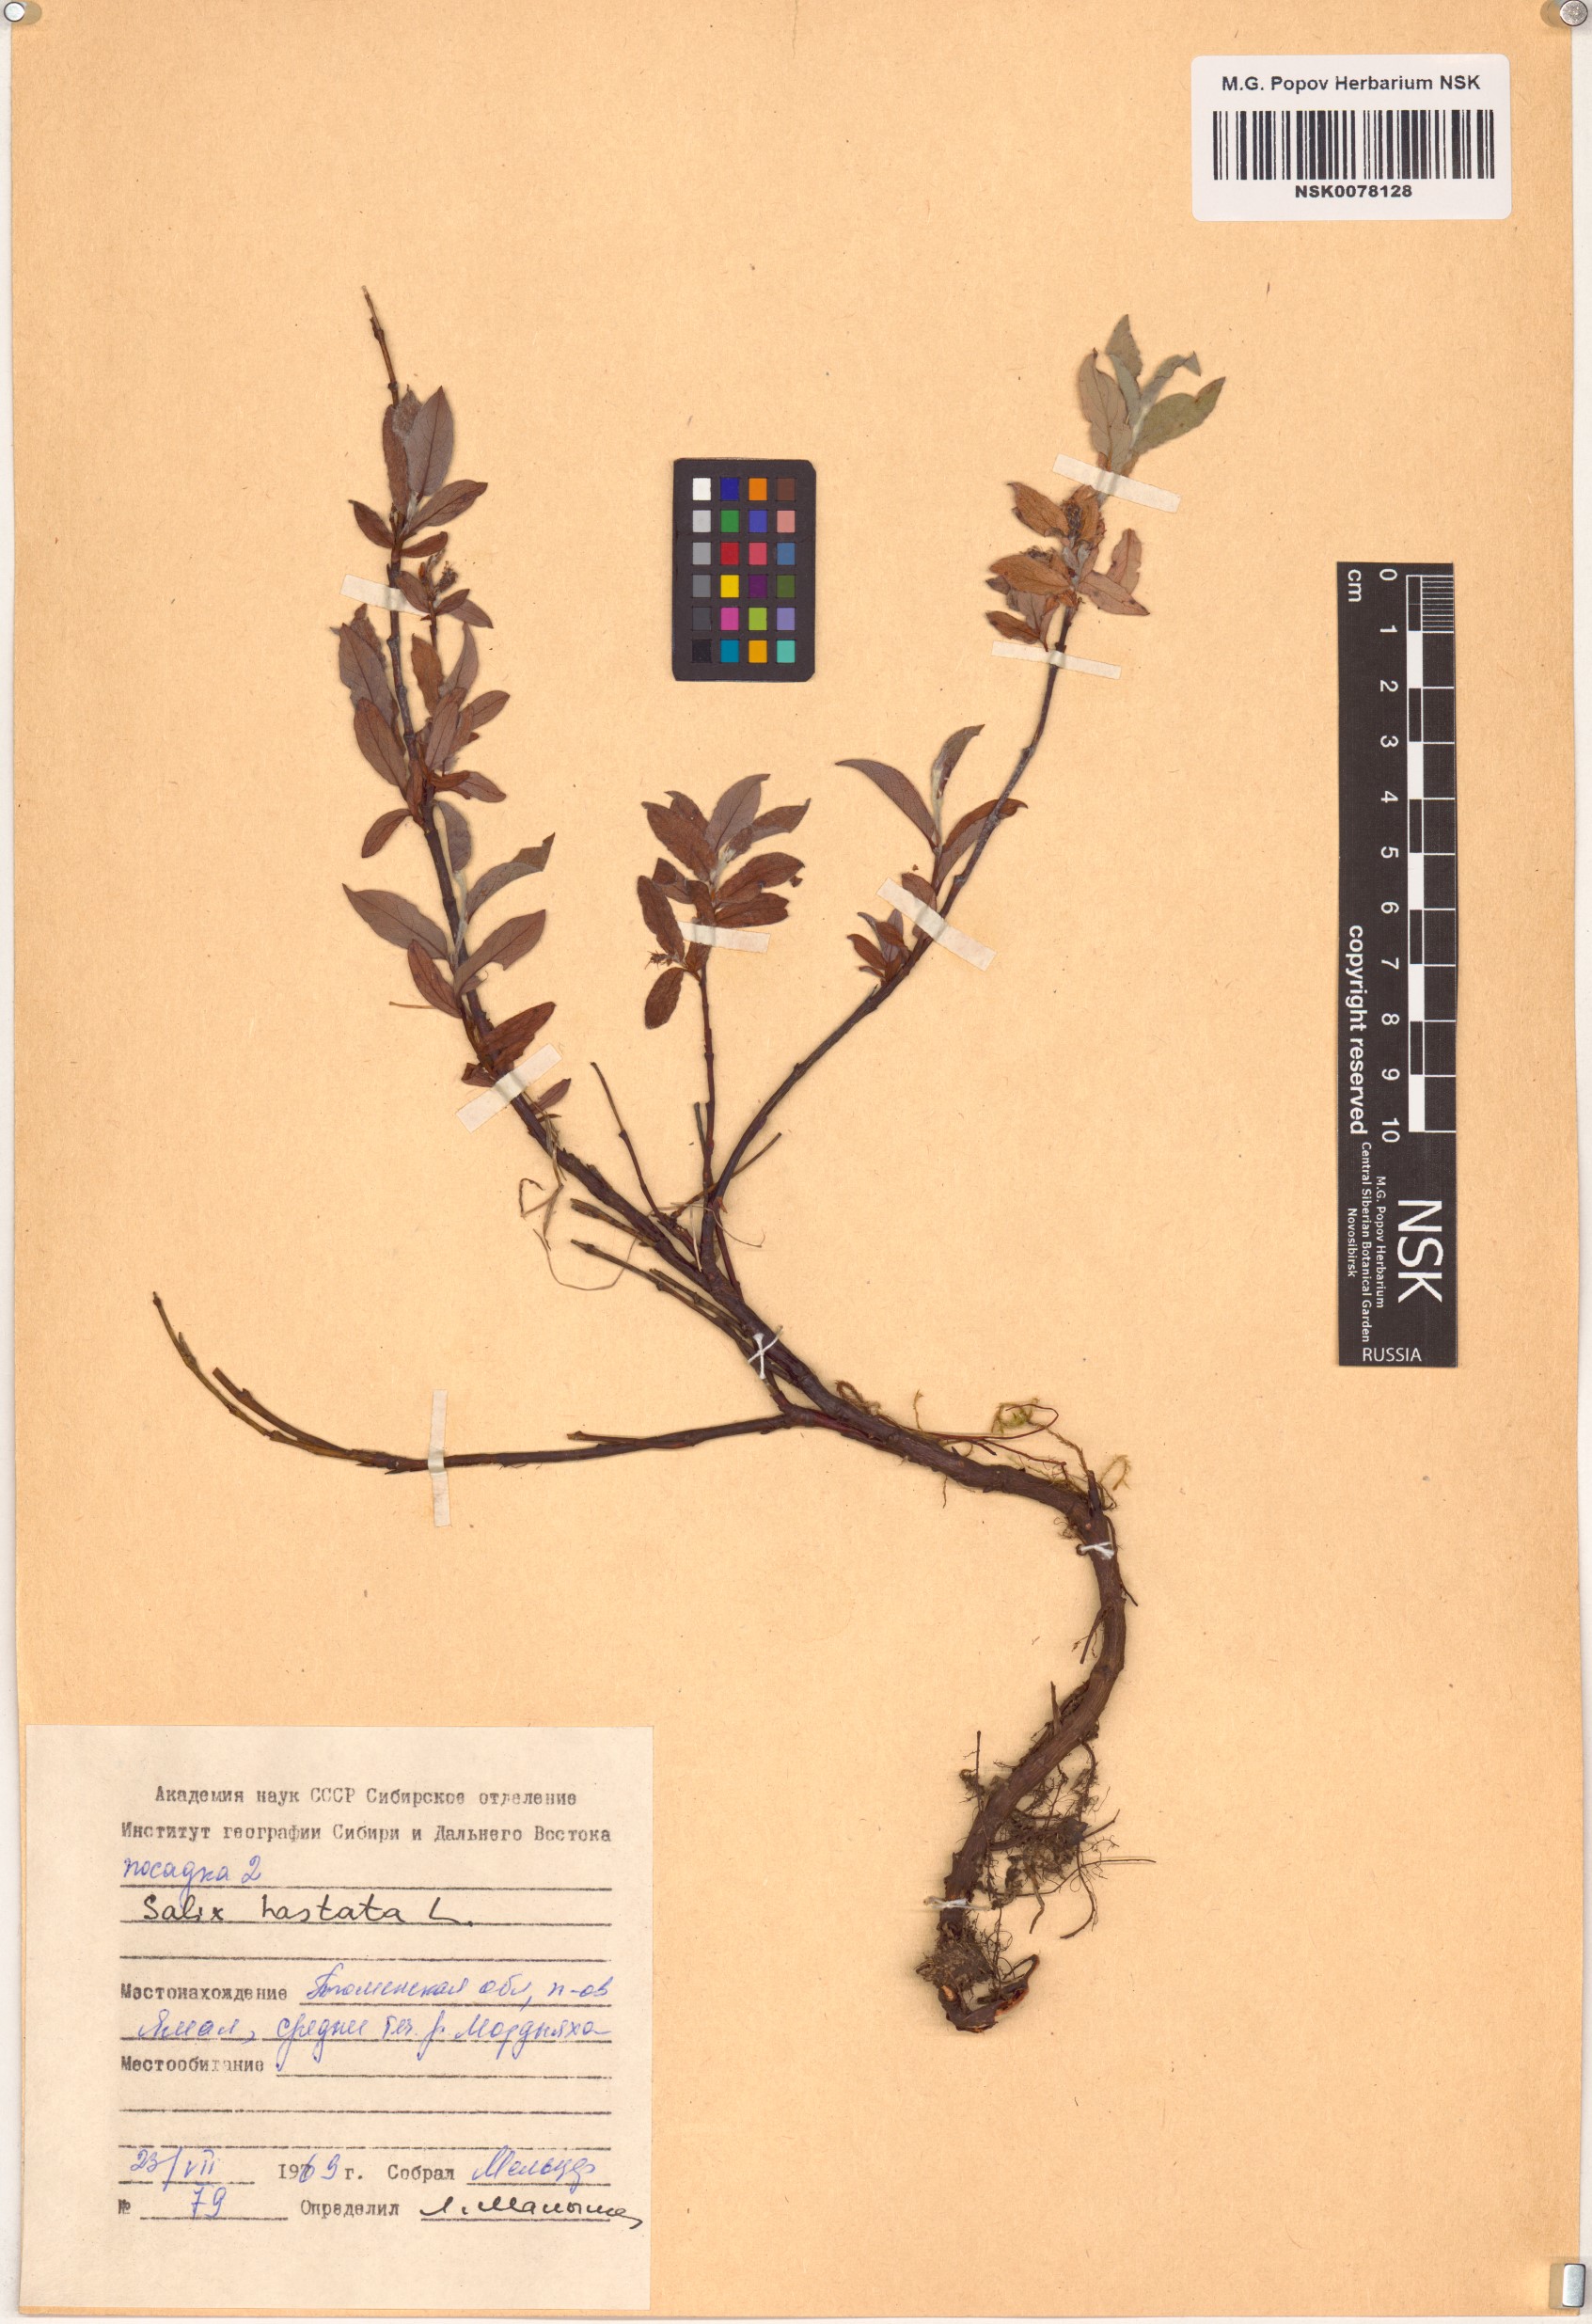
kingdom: Plantae
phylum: Tracheophyta
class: Magnoliopsida
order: Malpighiales
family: Salicaceae
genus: Salix
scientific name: Salix hastata
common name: Halberd willow
